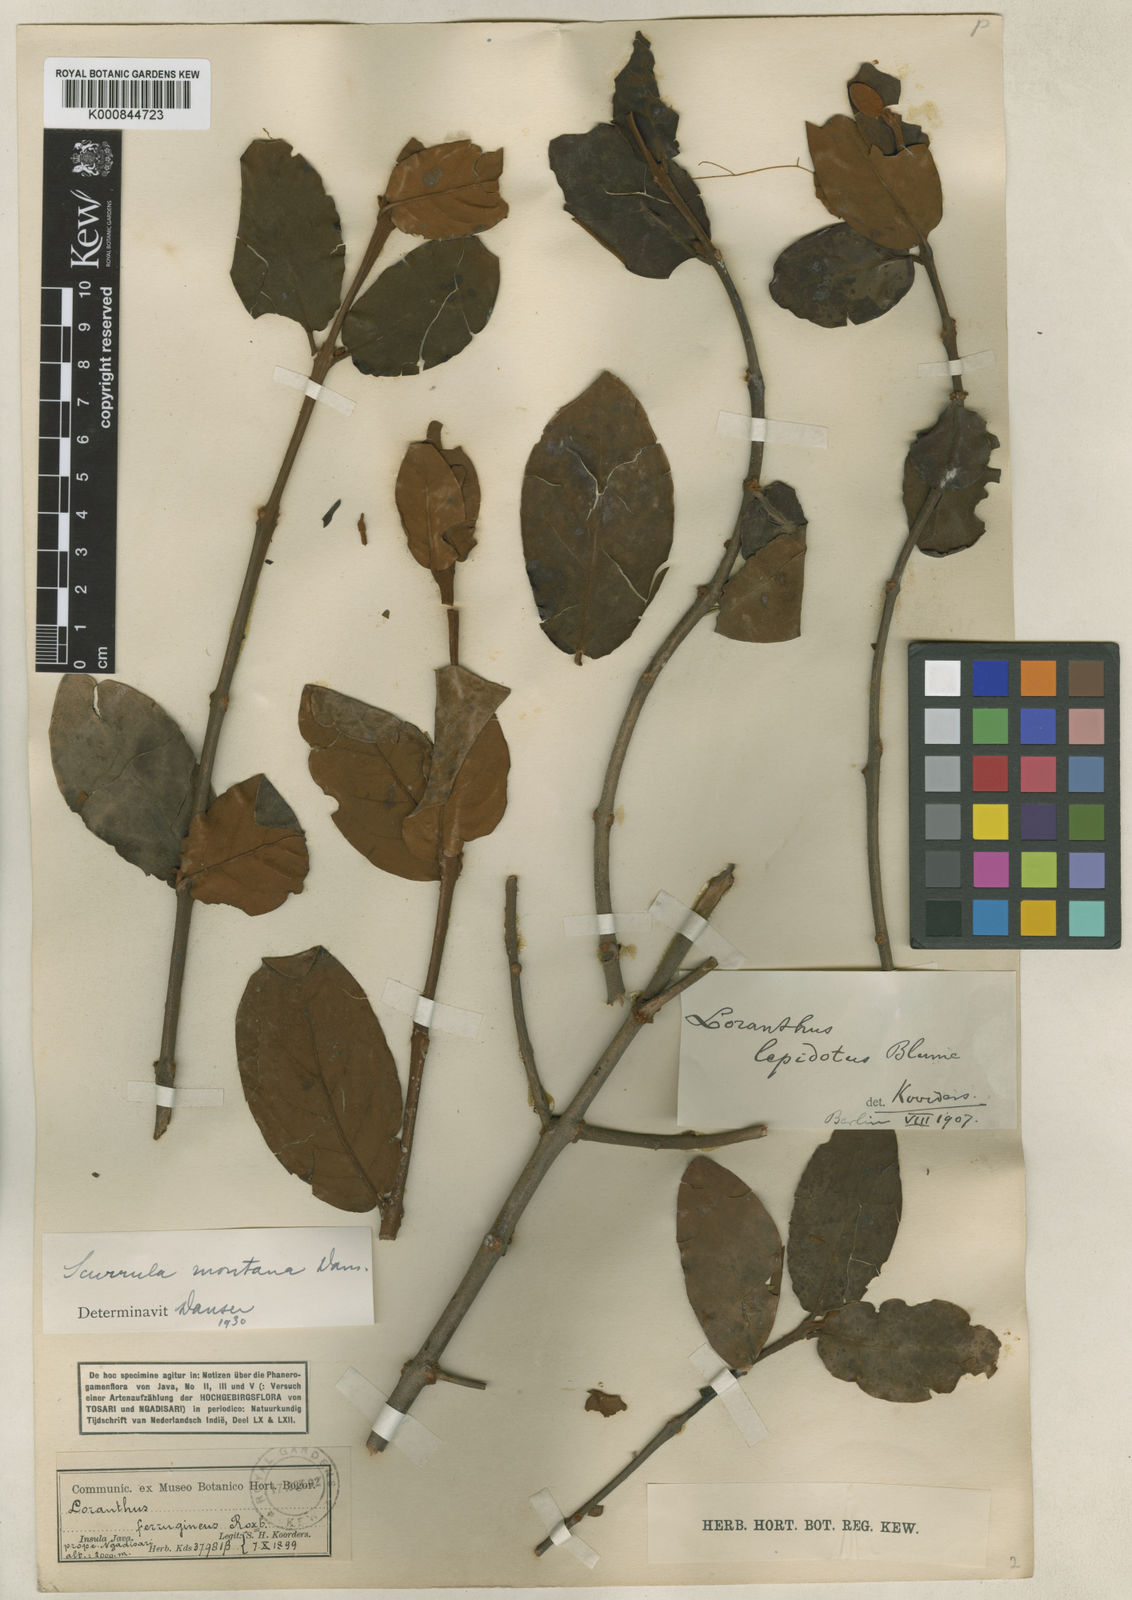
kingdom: Plantae
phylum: Tracheophyta
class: Magnoliopsida
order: Santalales
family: Loranthaceae
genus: Scurrula
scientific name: Scurrula montana
